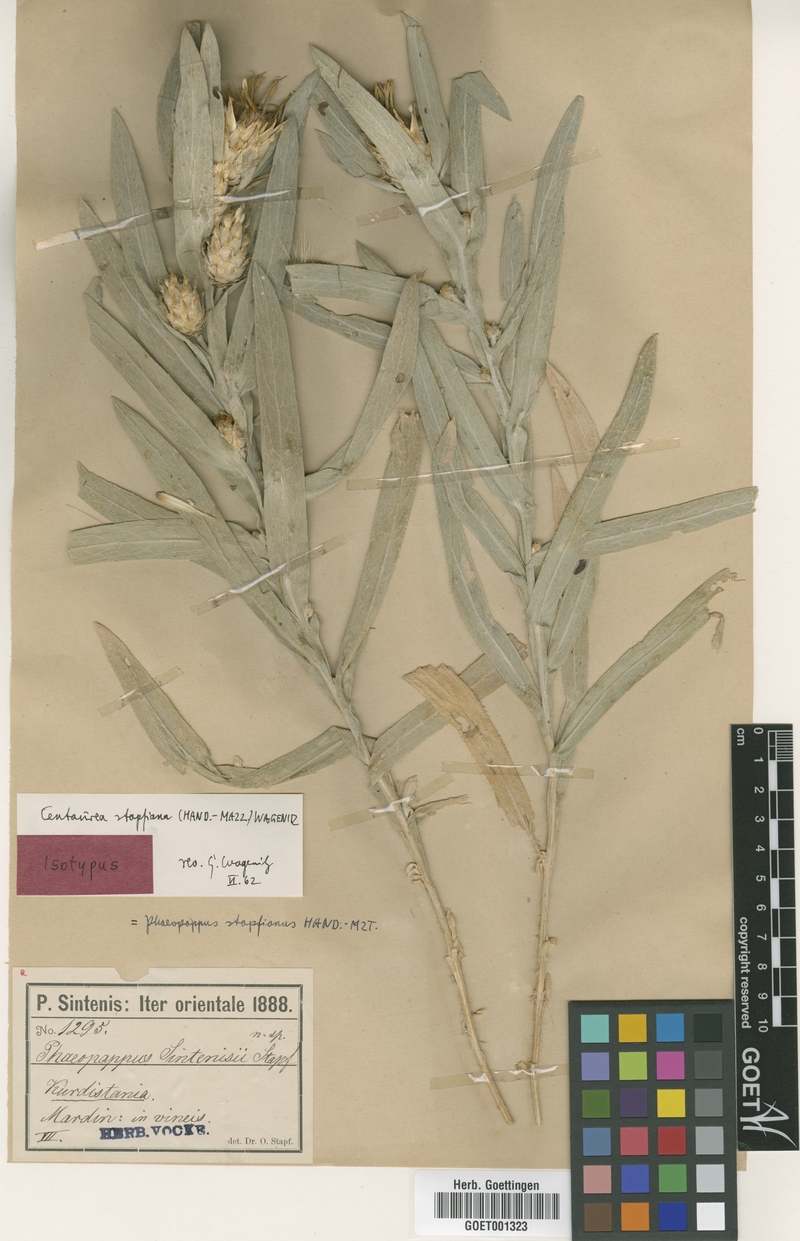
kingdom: Plantae
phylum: Tracheophyta
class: Magnoliopsida
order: Asterales
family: Asteraceae
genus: Centaurea
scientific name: Centaurea stapfiana
